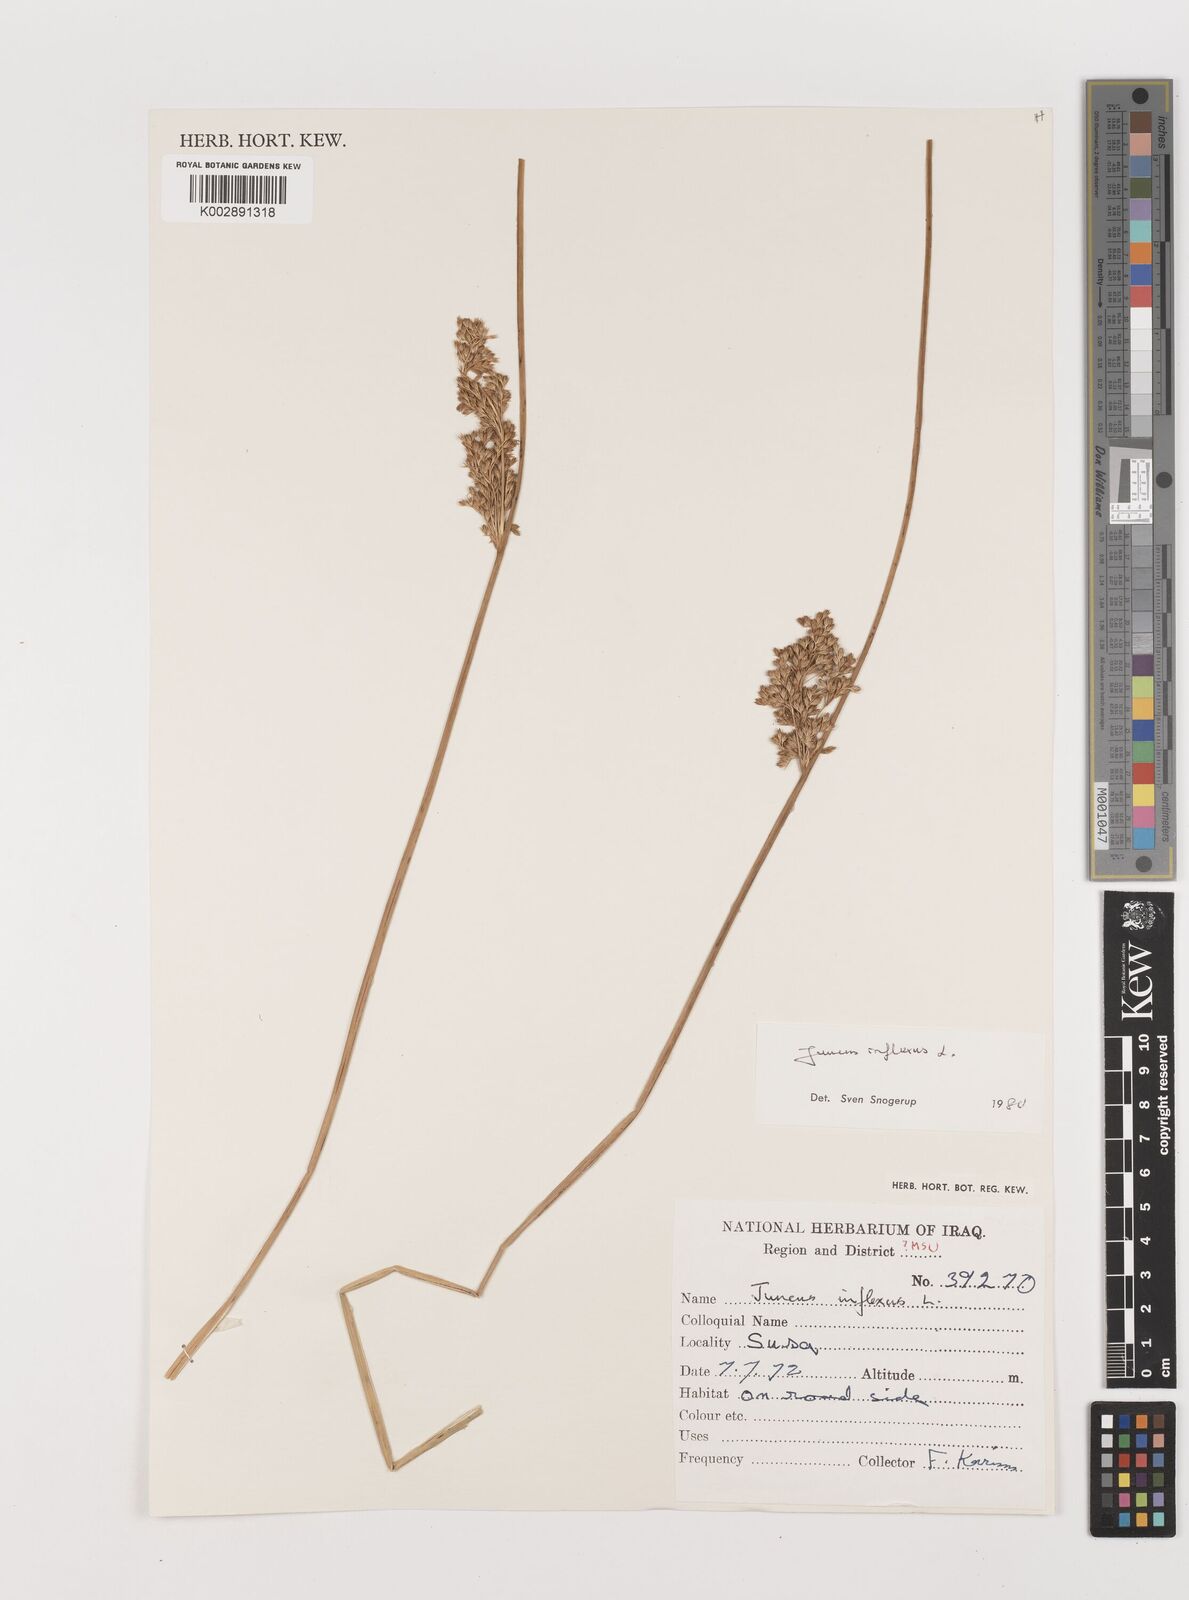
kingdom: Plantae
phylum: Tracheophyta
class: Liliopsida
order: Poales
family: Juncaceae
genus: Juncus
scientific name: Juncus inflexus
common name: Hard rush
